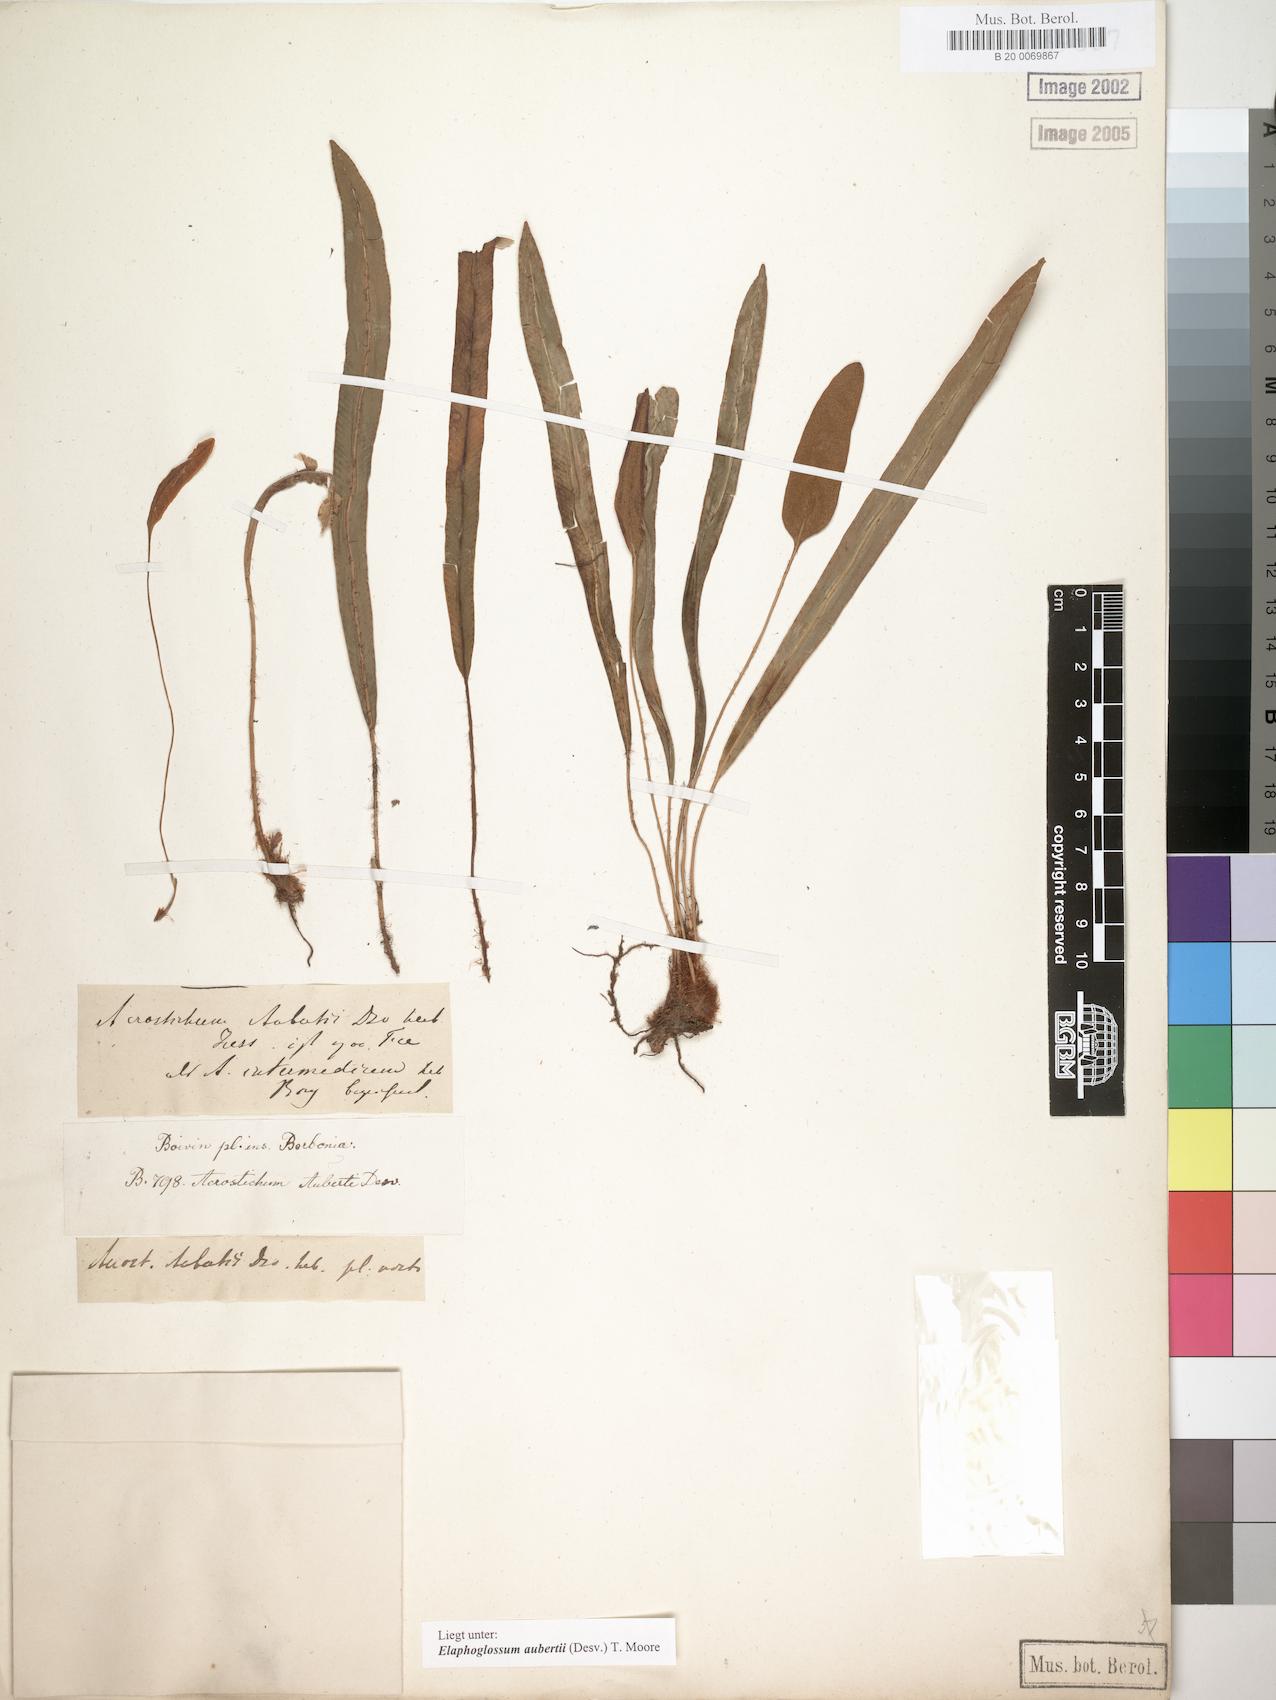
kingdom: Plantae
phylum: Tracheophyta
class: Polypodiopsida
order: Polypodiales
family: Dryopteridaceae
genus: Elaphoglossum
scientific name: Elaphoglossum aubertii
